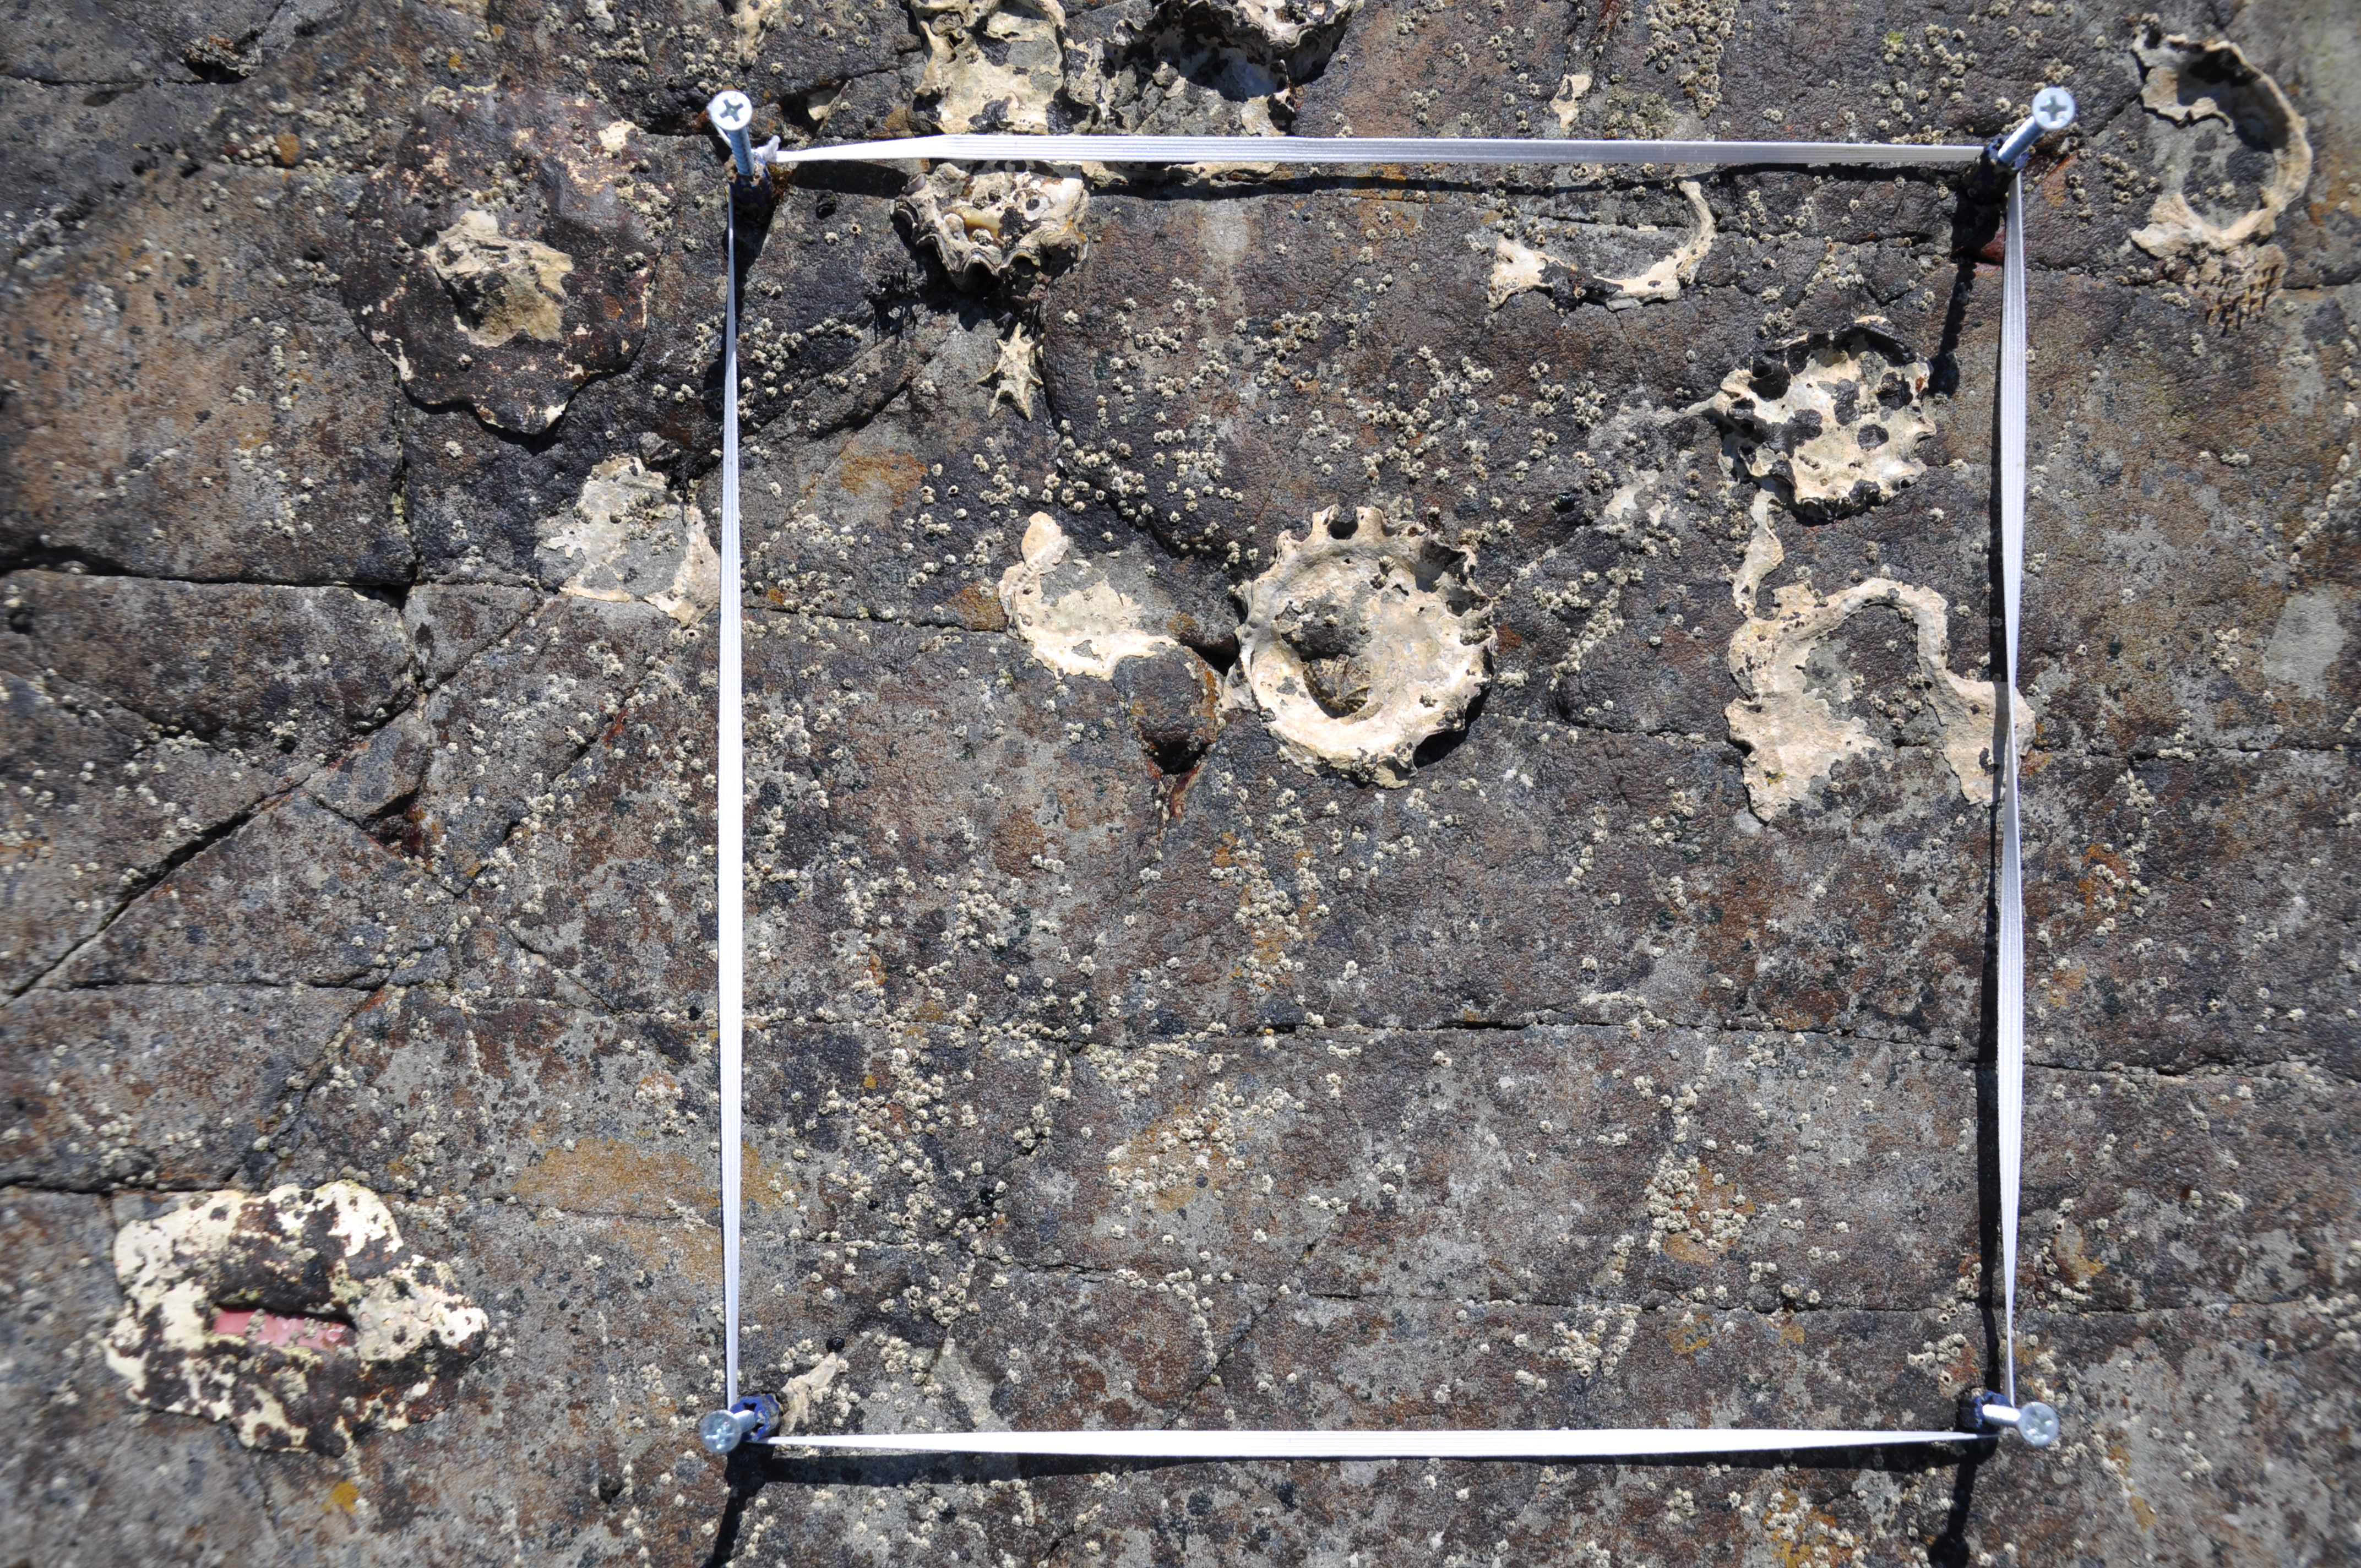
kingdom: Animalia
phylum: Arthropoda
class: Maxillopoda
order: Sessilia
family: Chthamalidae
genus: Chthamalus
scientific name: Chthamalus challengeri
